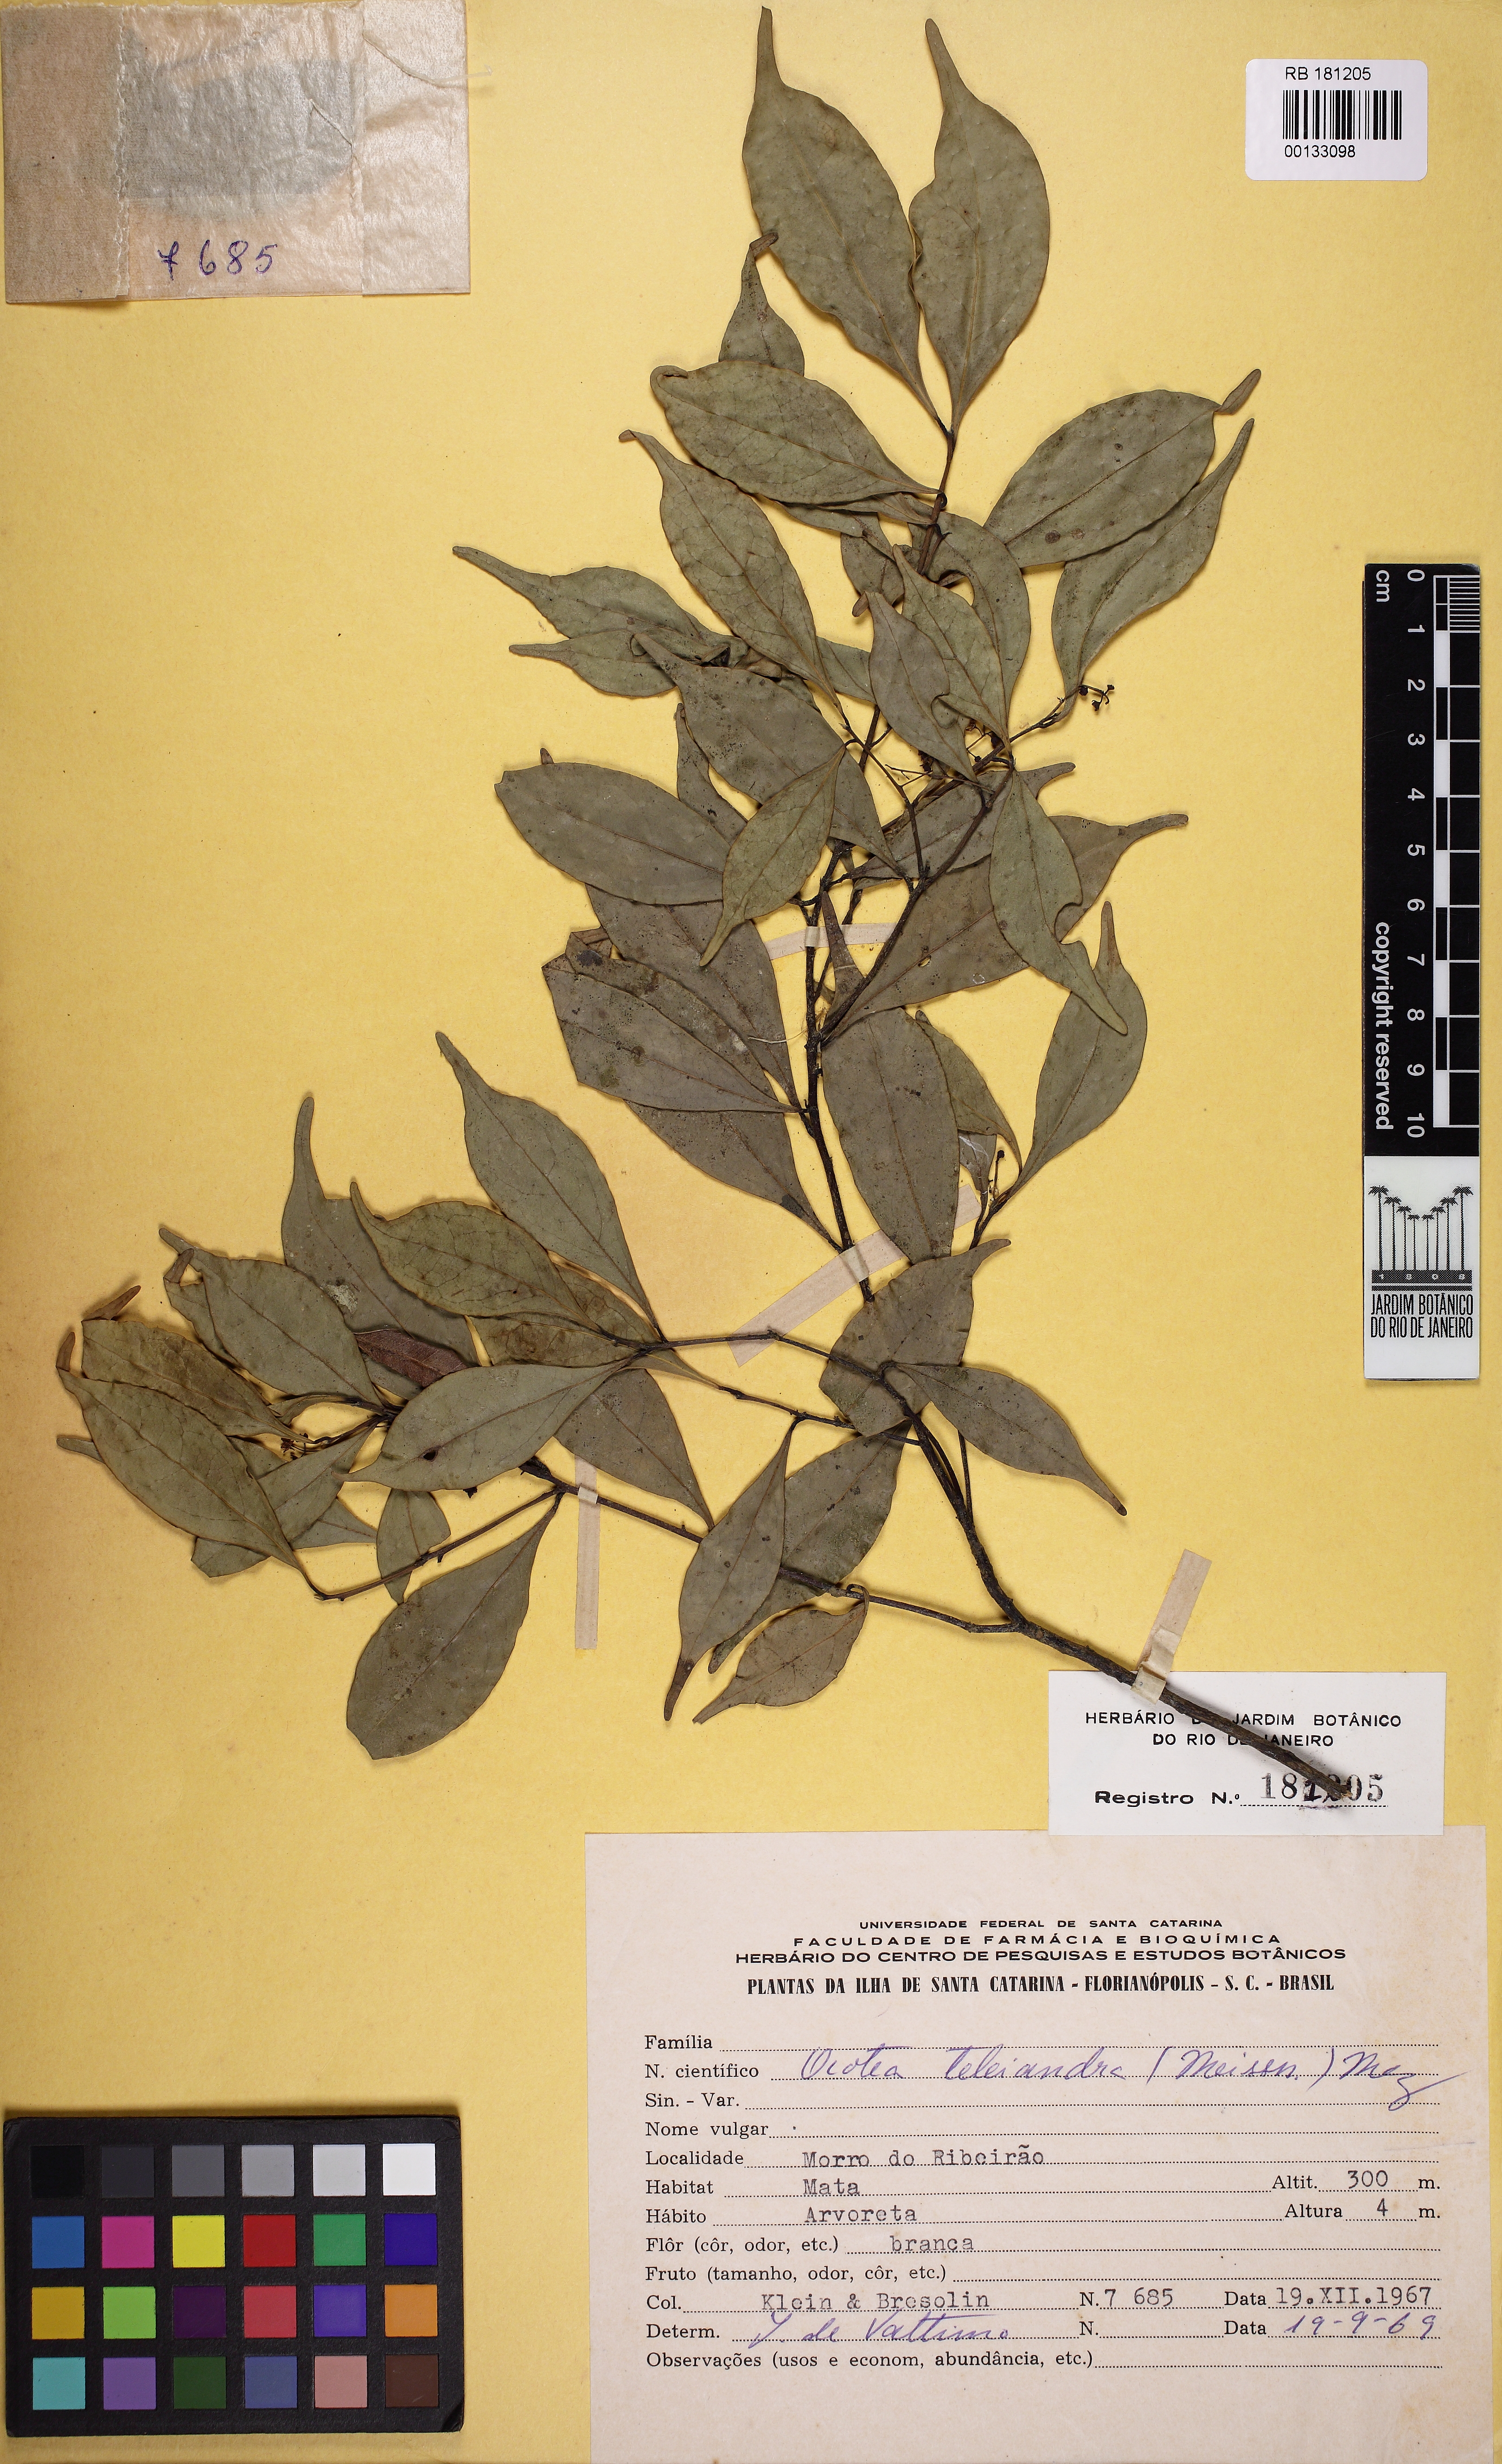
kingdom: Plantae
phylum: Tracheophyta
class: Magnoliopsida
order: Laurales
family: Lauraceae
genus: Ocotea
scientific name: Ocotea teleiandra
